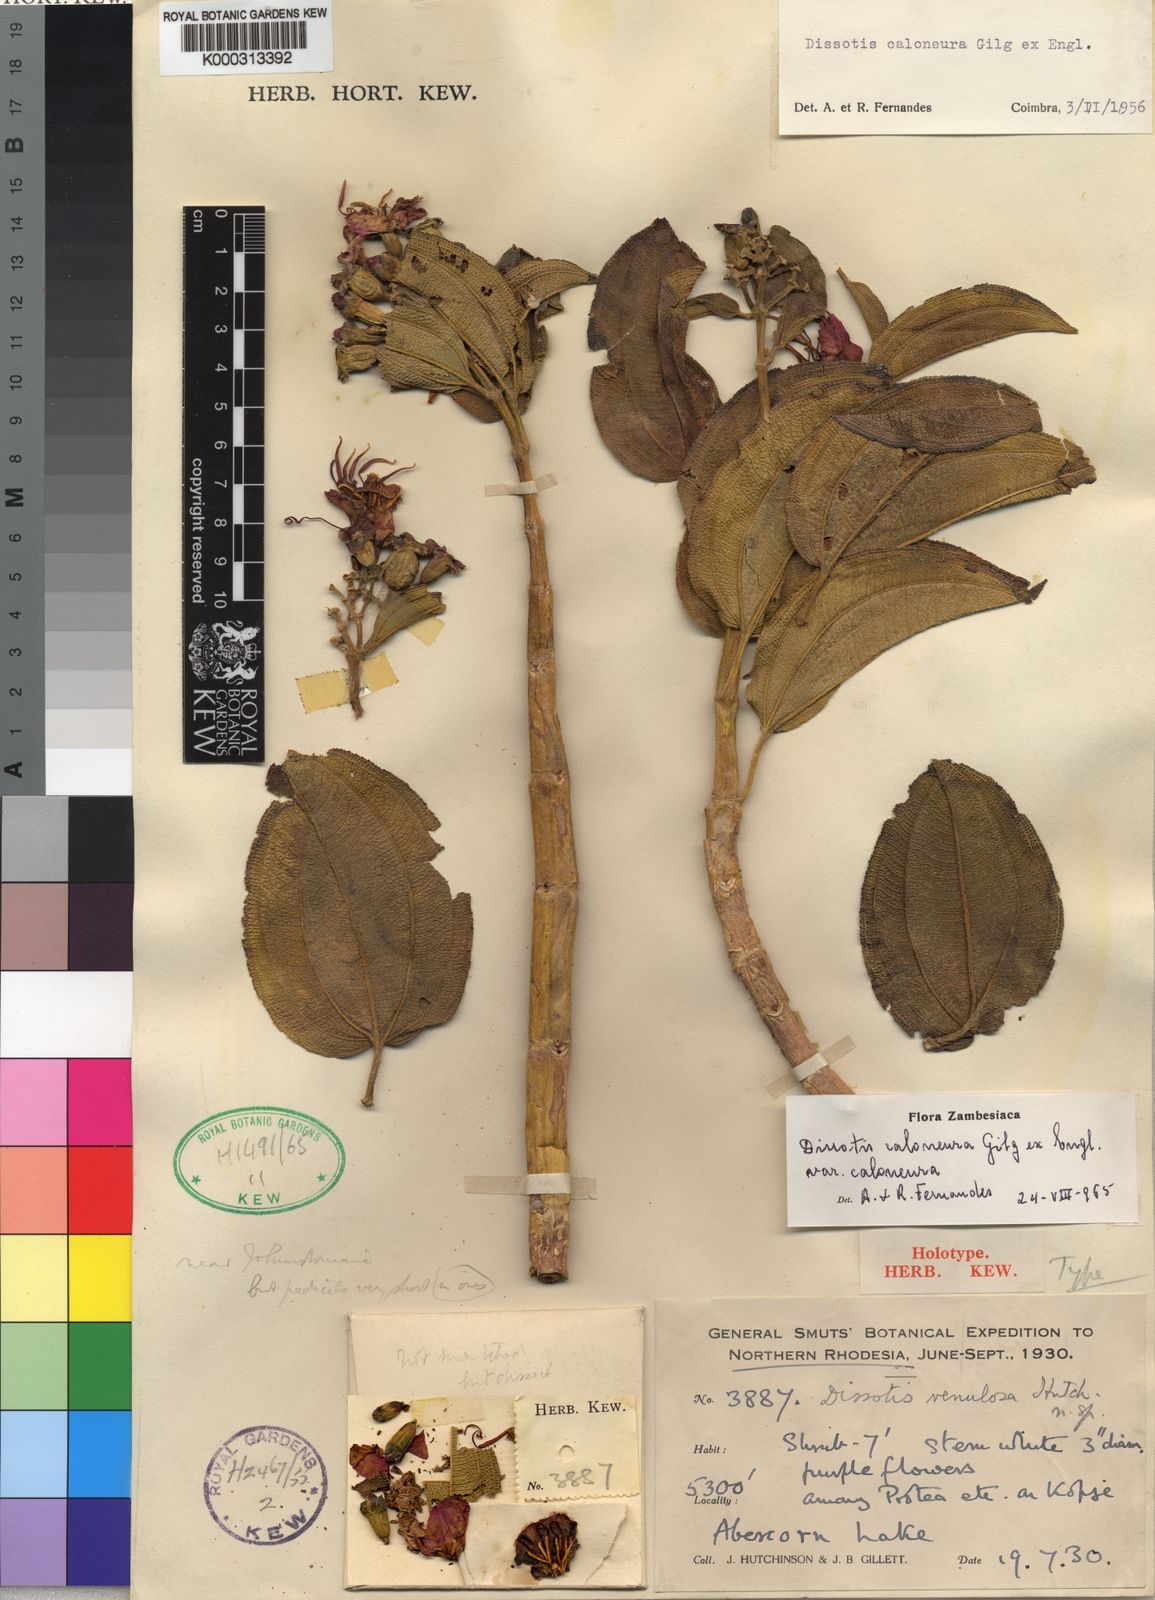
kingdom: Plantae
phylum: Tracheophyta
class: Magnoliopsida
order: Myrtales
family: Melastomataceae
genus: Dissotidendron
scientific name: Dissotidendron caloneurum
